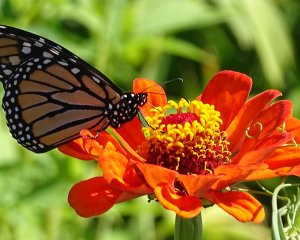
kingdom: Animalia
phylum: Arthropoda
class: Insecta
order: Lepidoptera
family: Nymphalidae
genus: Danaus
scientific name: Danaus plexippus
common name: Monarch
